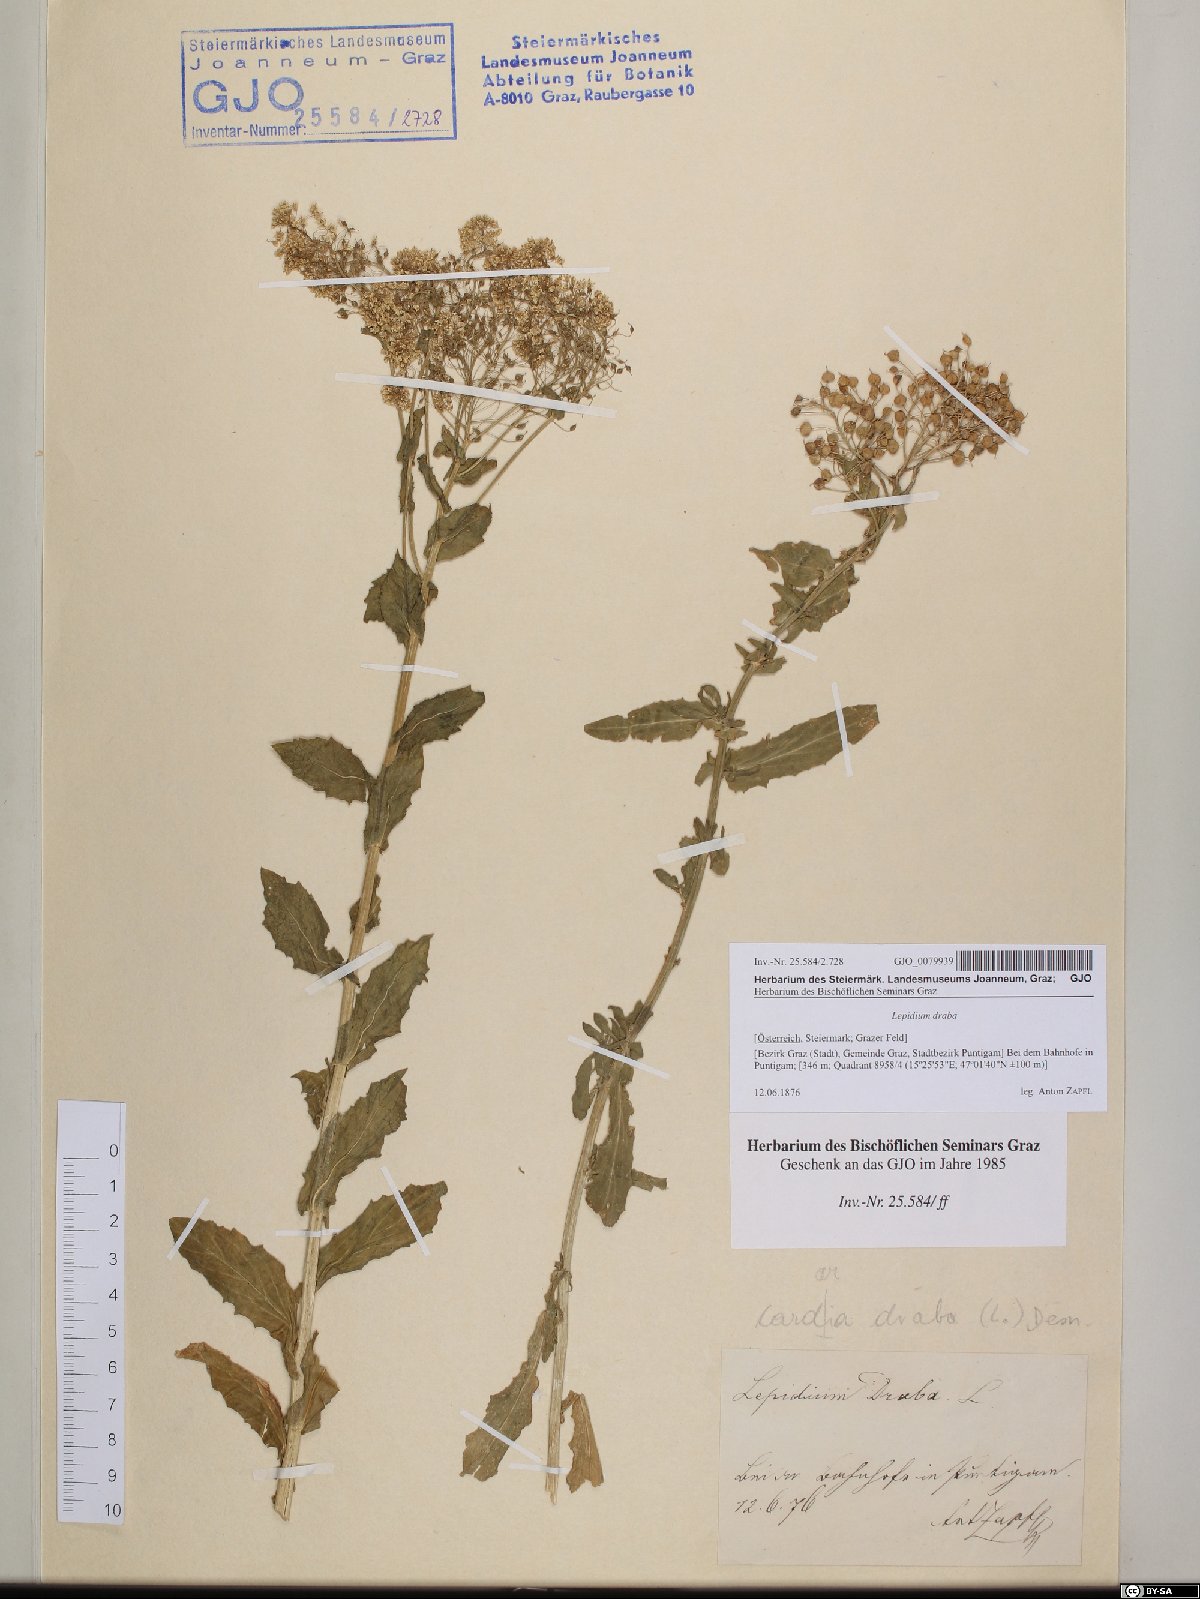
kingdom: Plantae
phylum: Tracheophyta
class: Magnoliopsida
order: Brassicales
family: Brassicaceae
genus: Lepidium
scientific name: Lepidium draba
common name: Hoary cress
